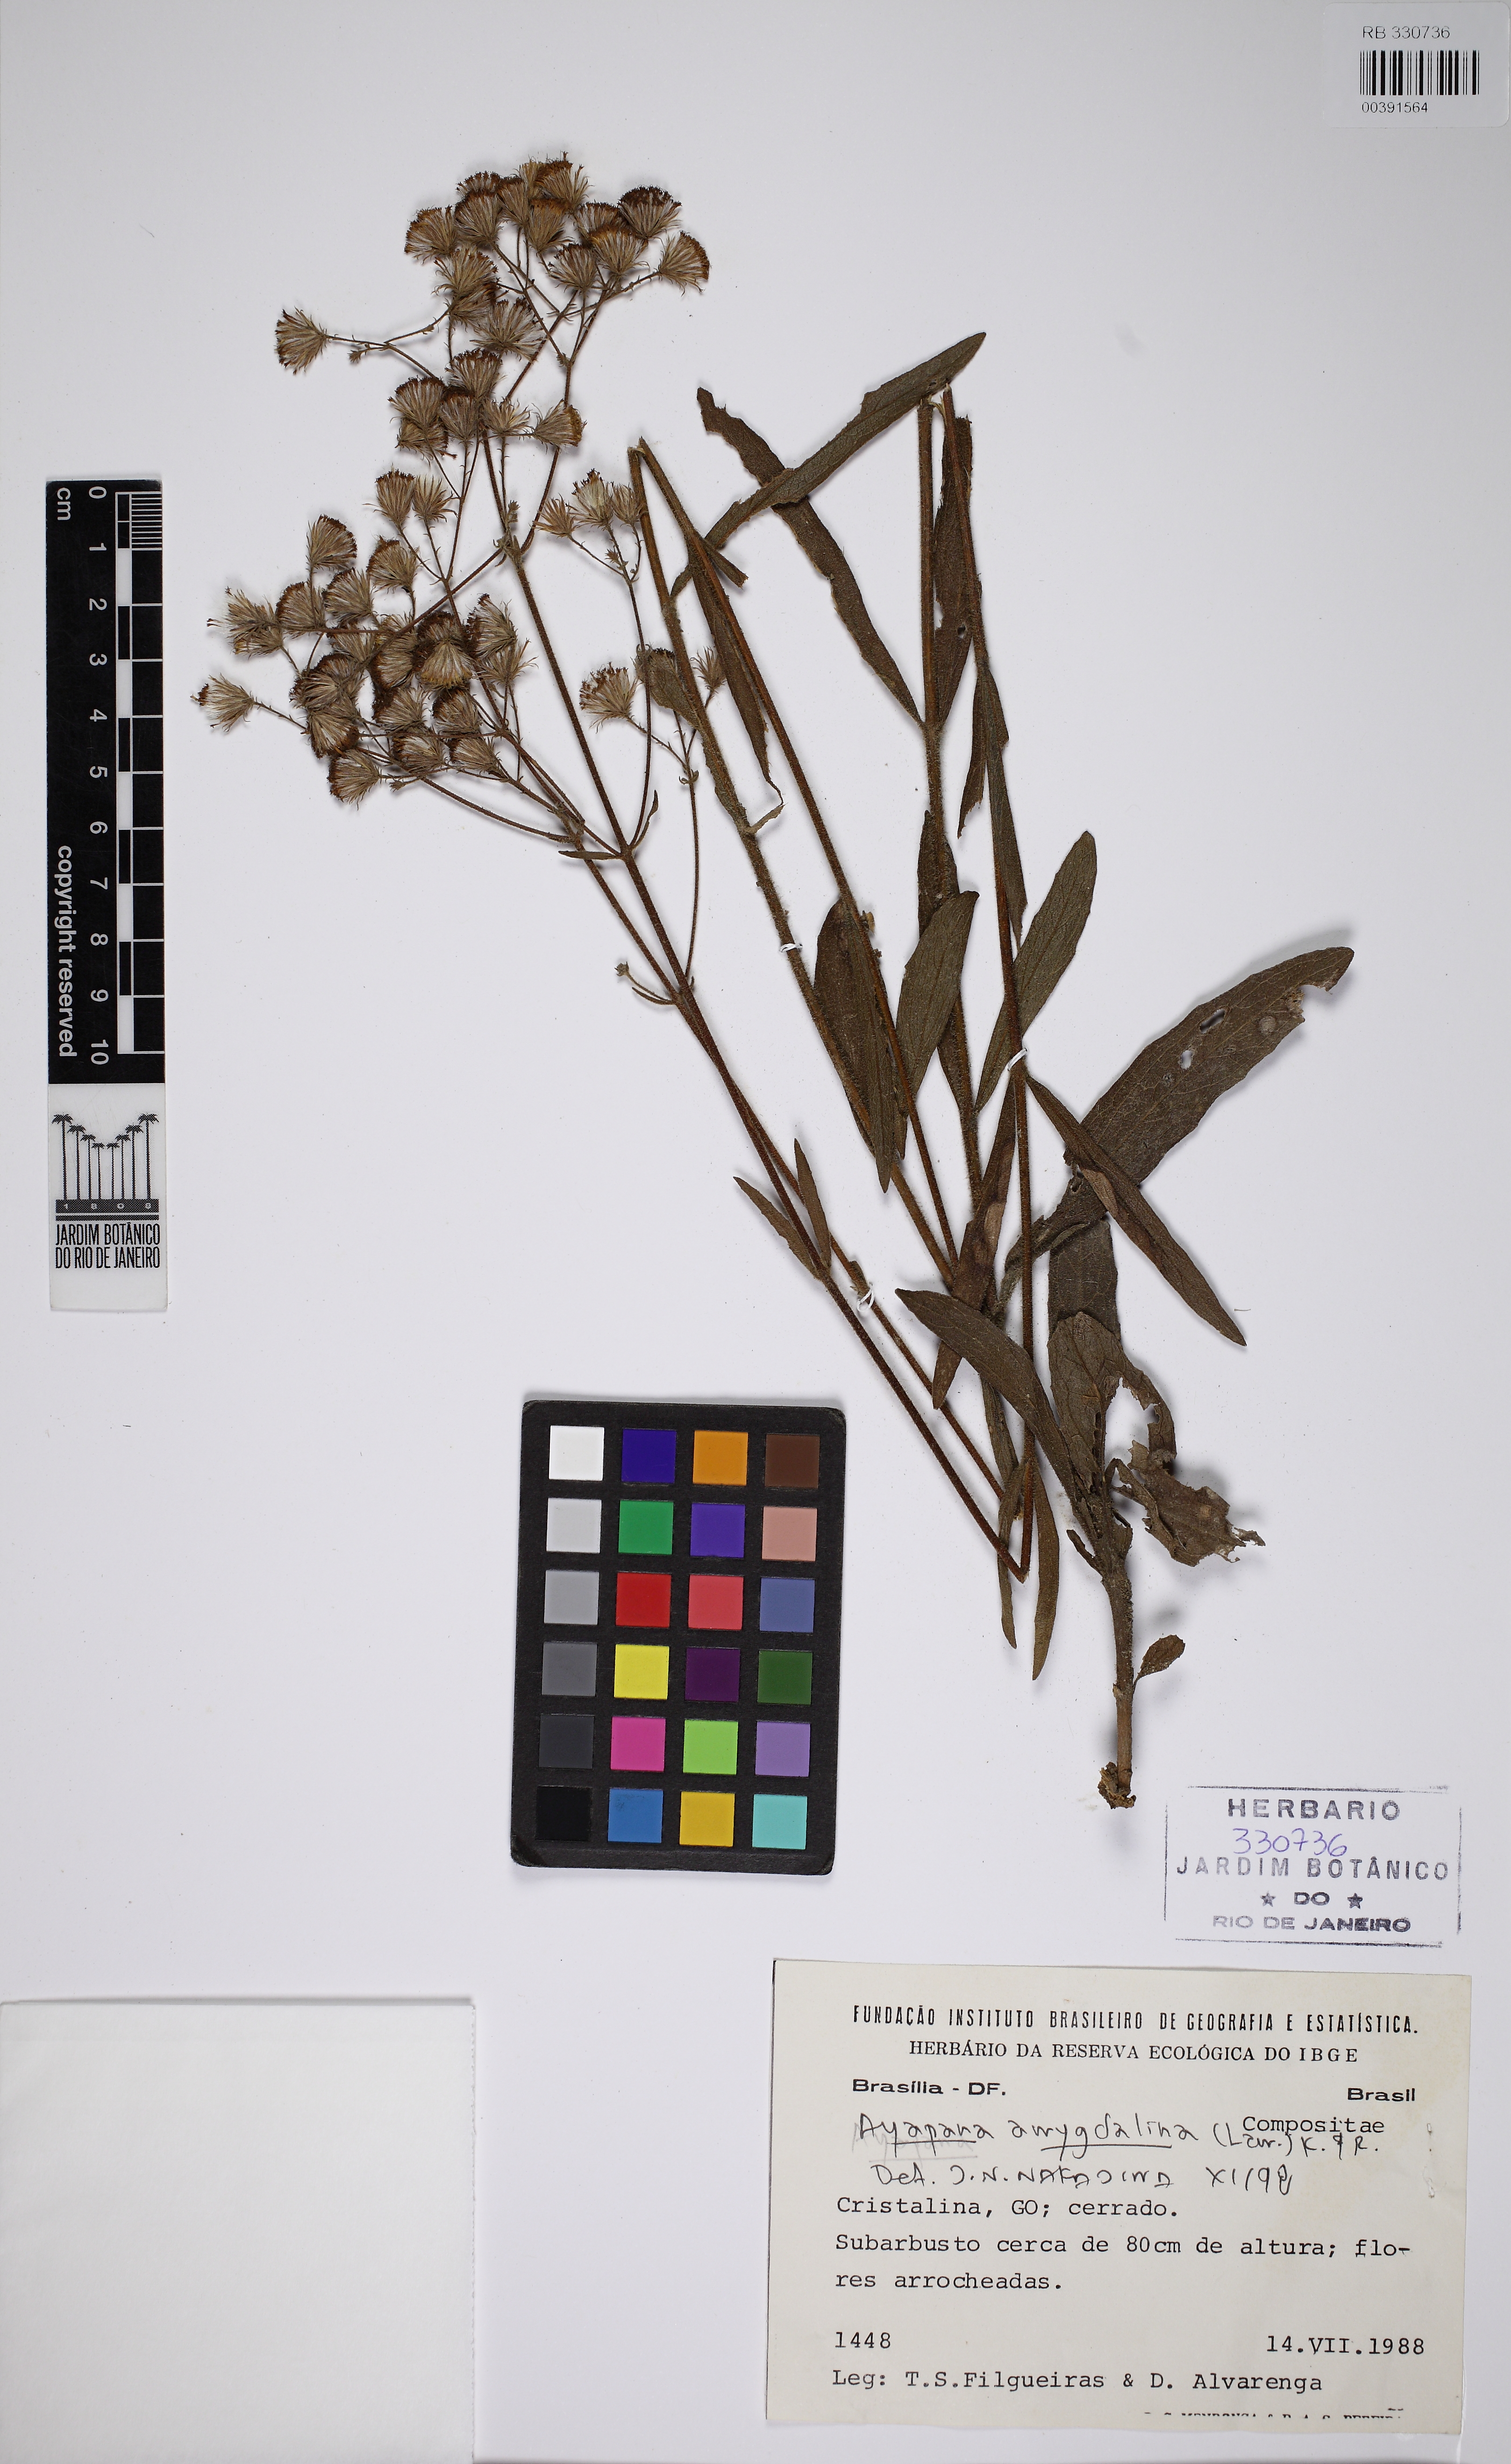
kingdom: Plantae
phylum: Tracheophyta
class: Magnoliopsida
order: Asterales
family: Asteraceae
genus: Ayapana
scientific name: Ayapana amygdalina
